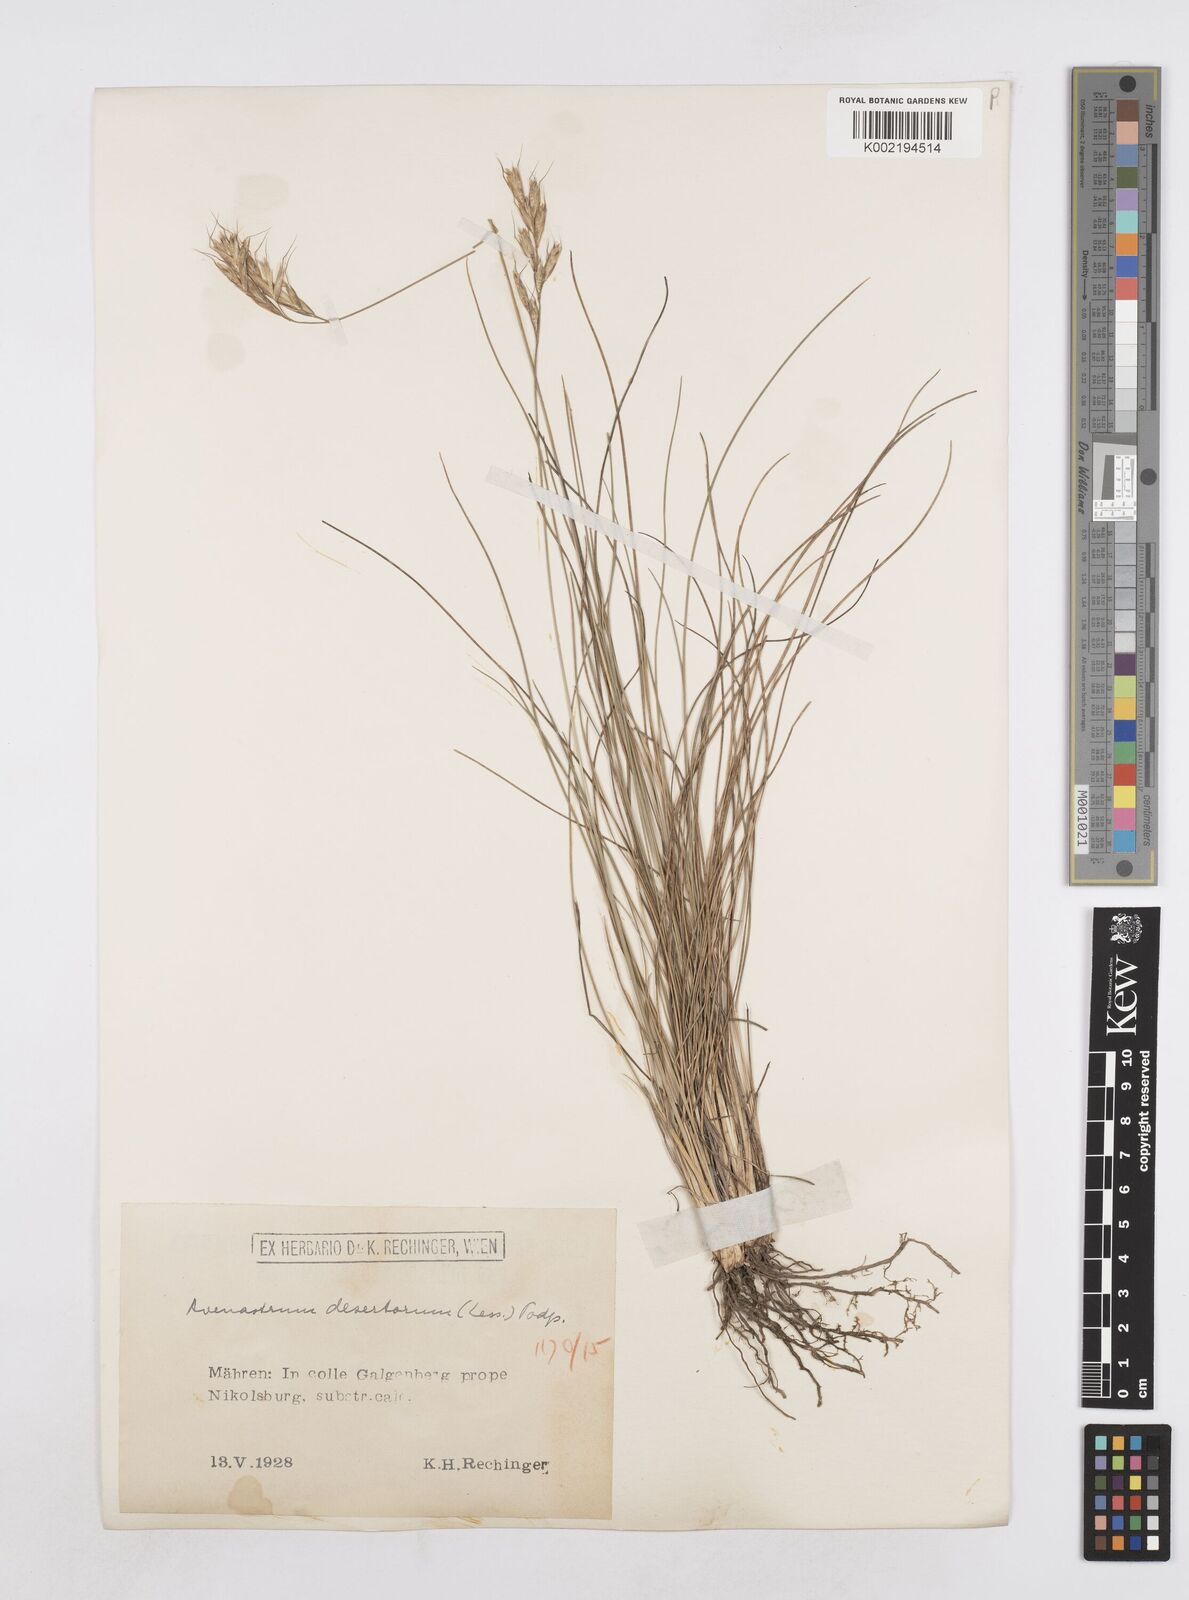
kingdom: Plantae
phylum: Tracheophyta
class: Liliopsida
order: Poales
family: Poaceae
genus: Helictotrichon
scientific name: Helictotrichon desertorum
